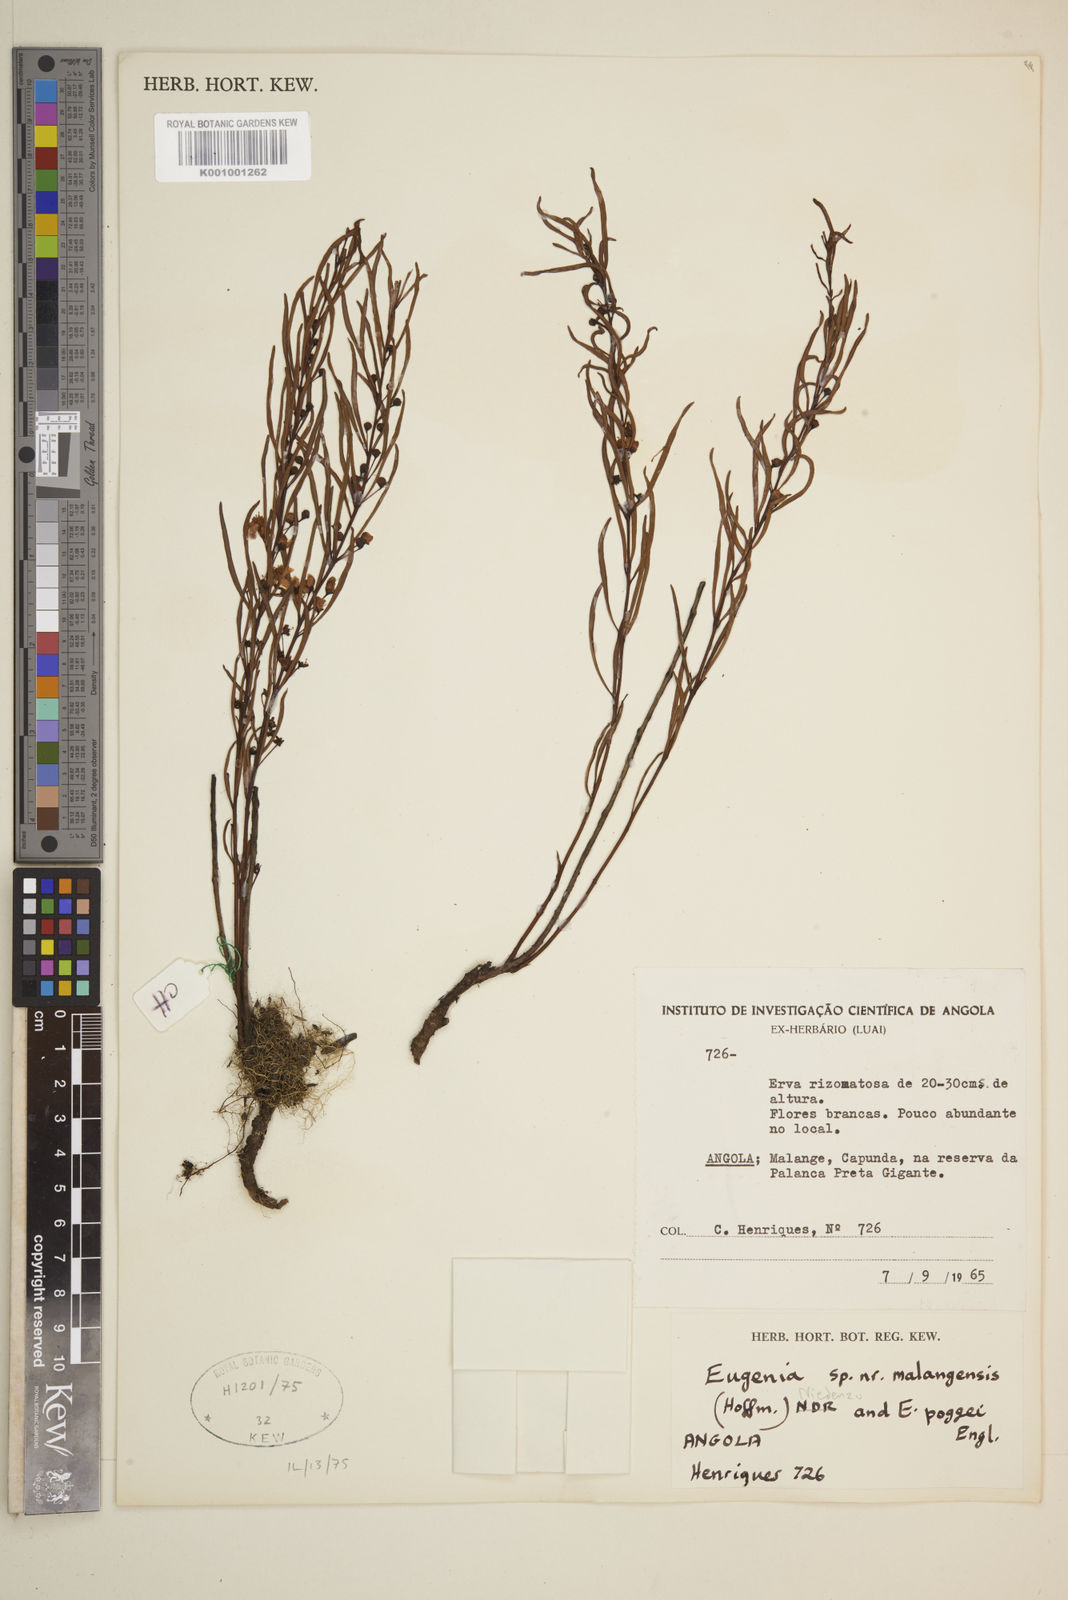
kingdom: Plantae
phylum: Tracheophyta
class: Magnoliopsida
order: Myrtales
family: Myrtaceae
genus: Eugenia
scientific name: Eugenia
